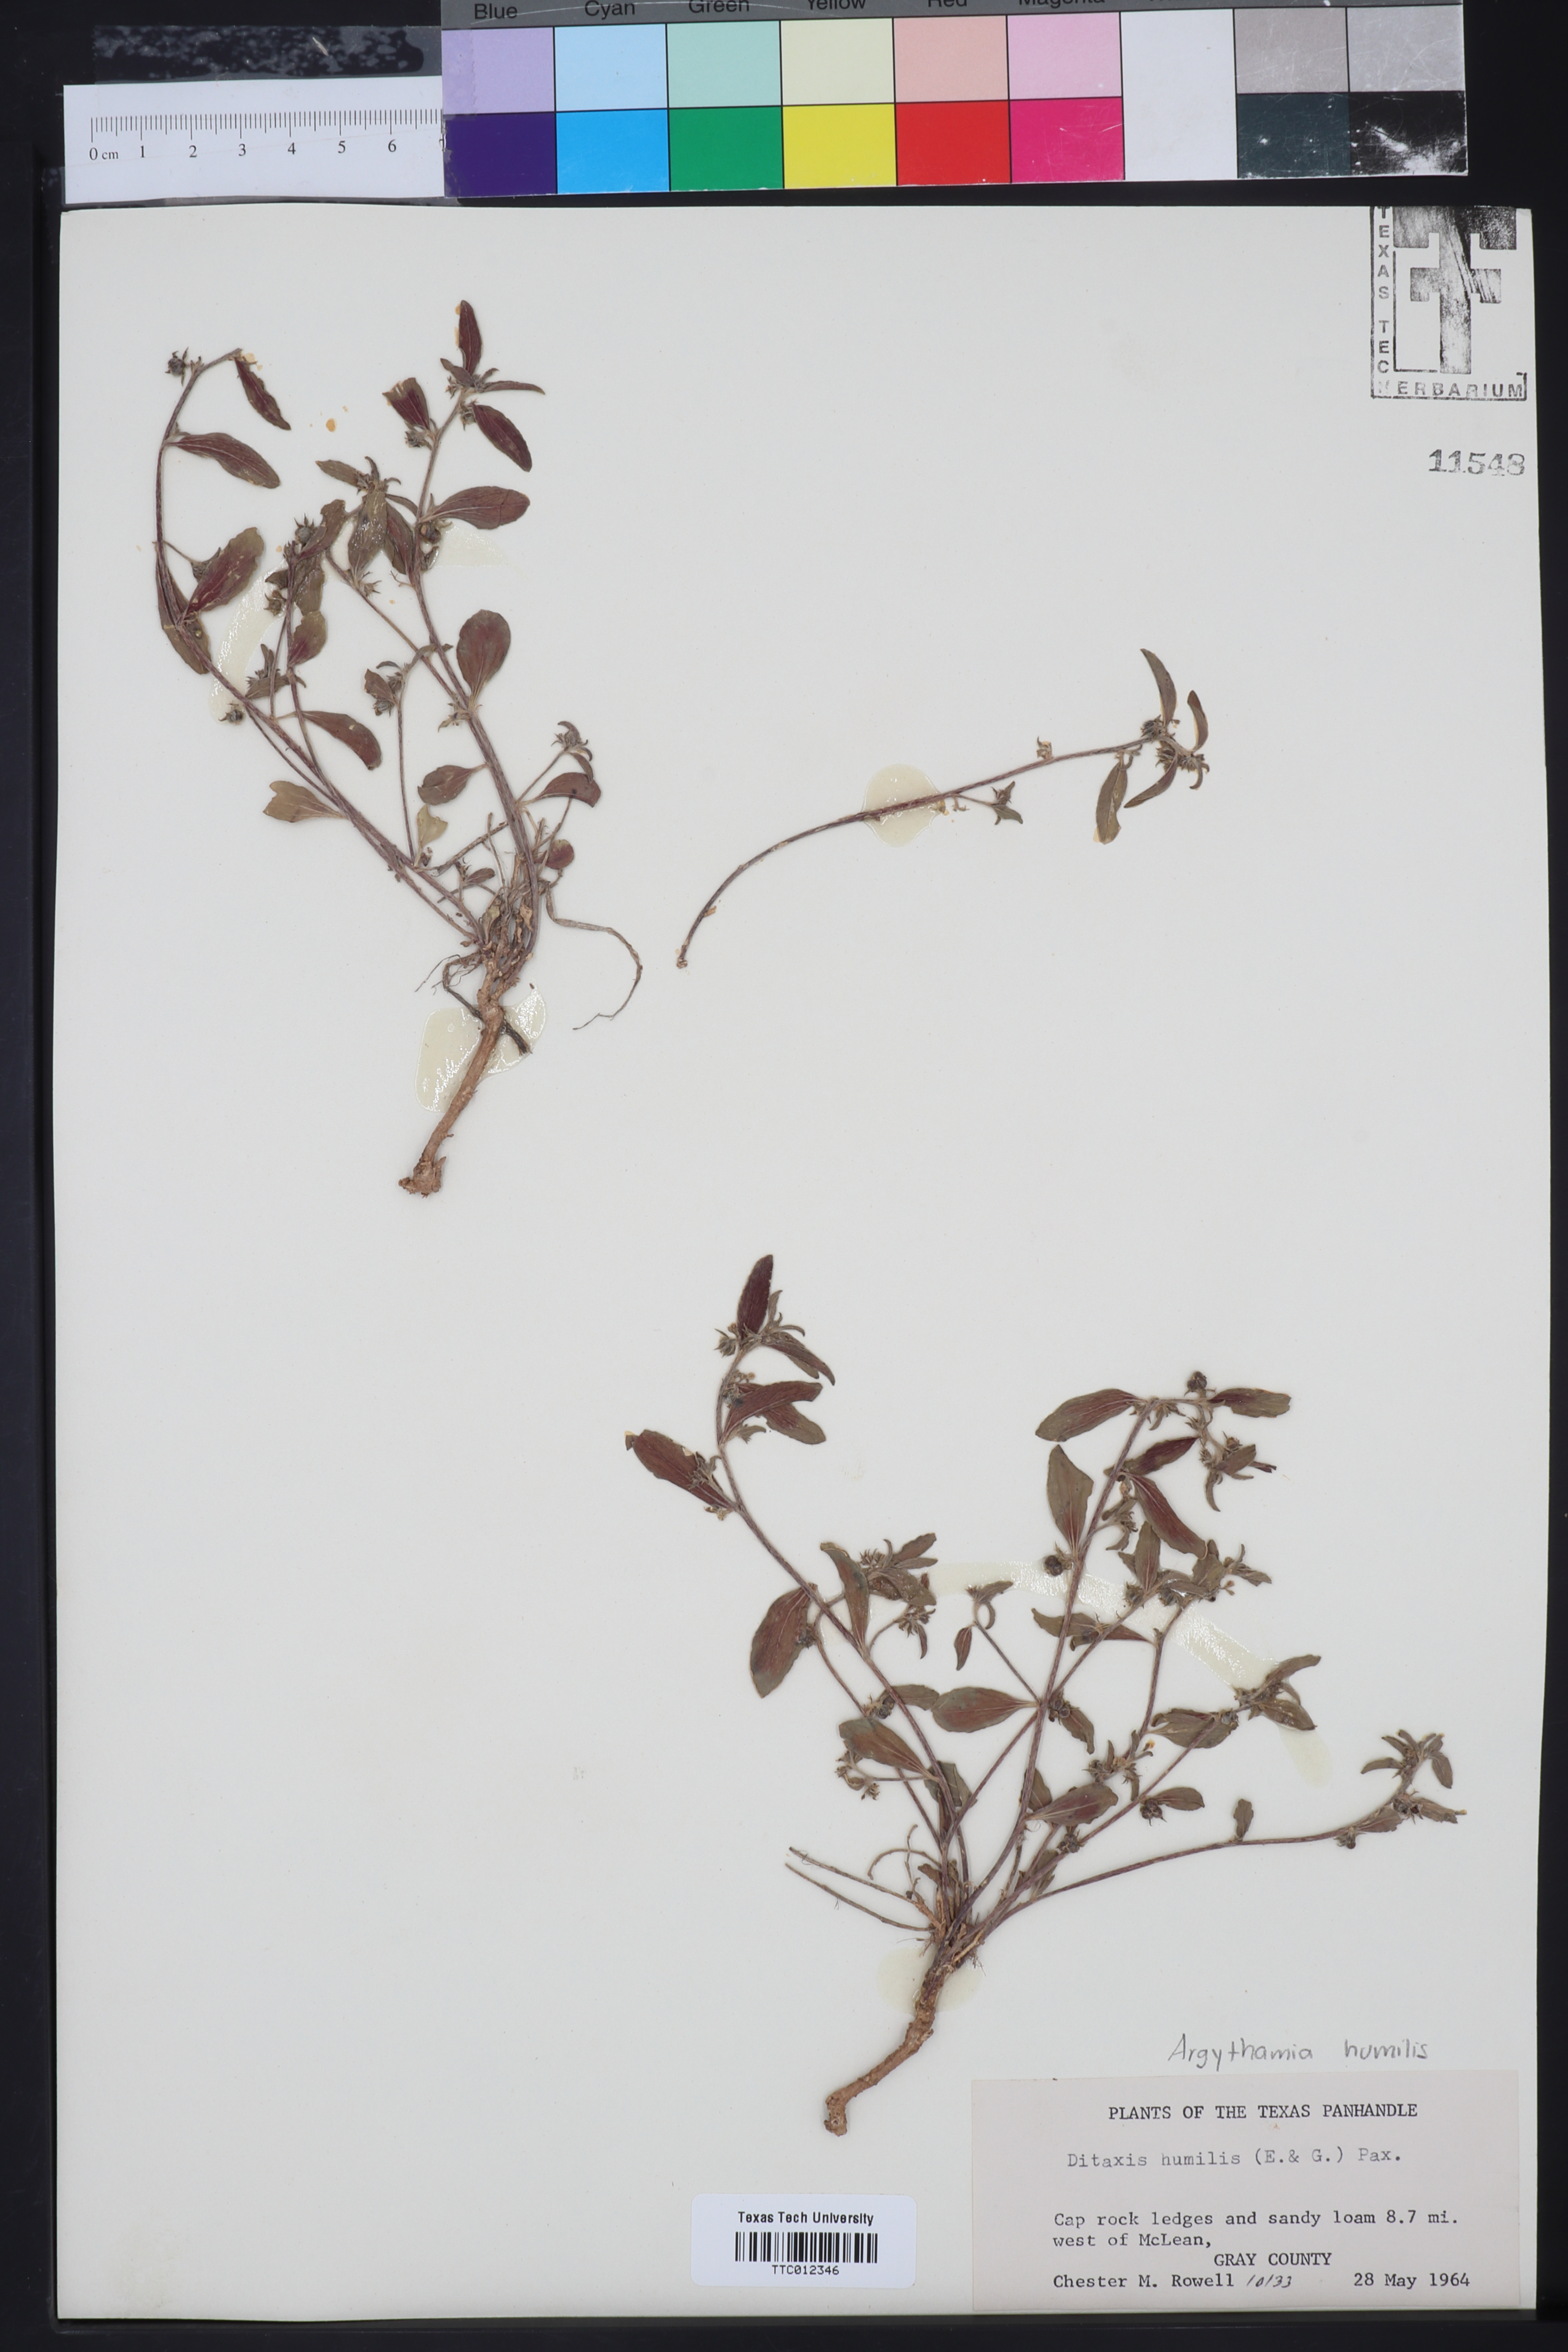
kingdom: Plantae
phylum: Tracheophyta
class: Magnoliopsida
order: Malpighiales
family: Euphorbiaceae
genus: Ditaxis
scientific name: Ditaxis humilis
